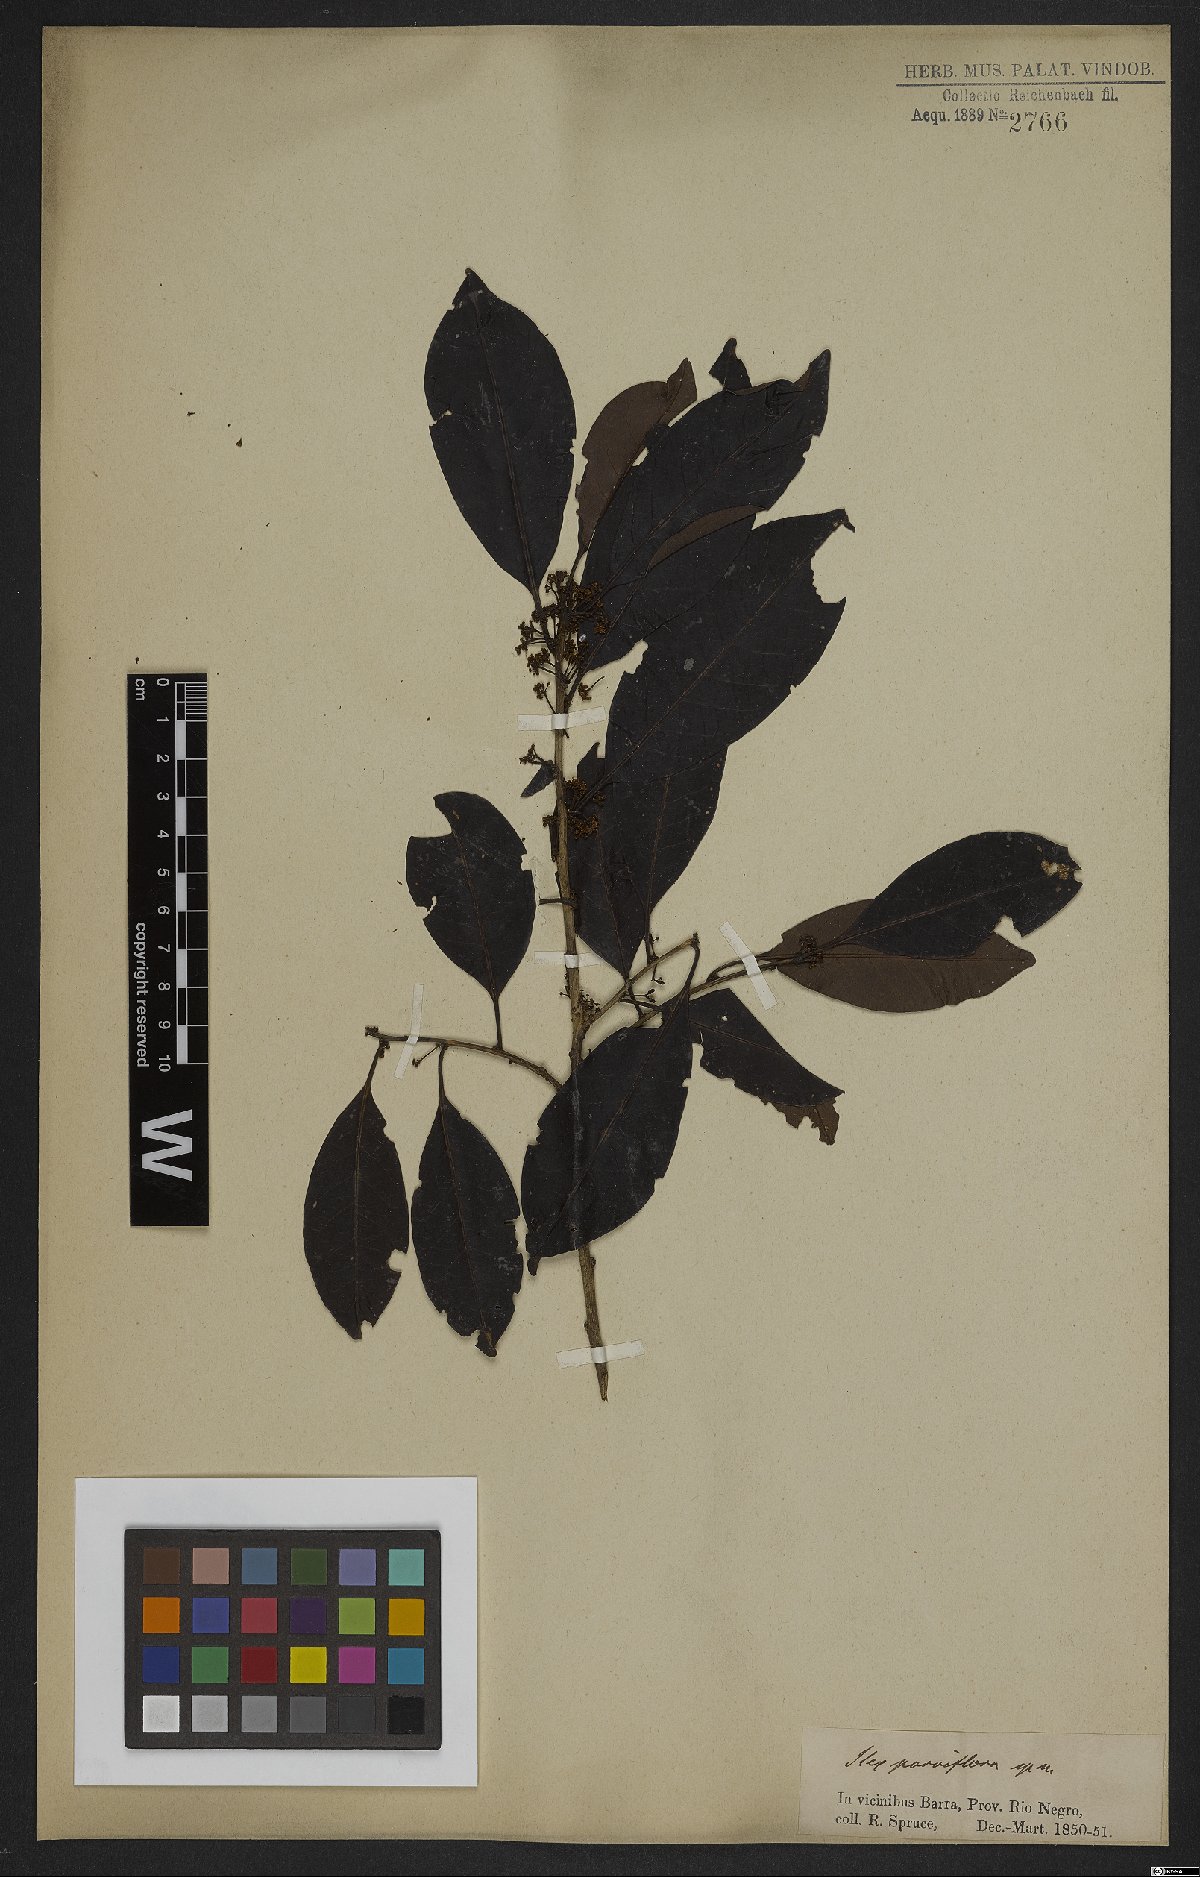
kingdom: Plantae
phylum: Tracheophyta
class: Magnoliopsida
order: Aquifoliales
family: Aquifoliaceae
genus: Ilex
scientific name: Ilex petiolaris
